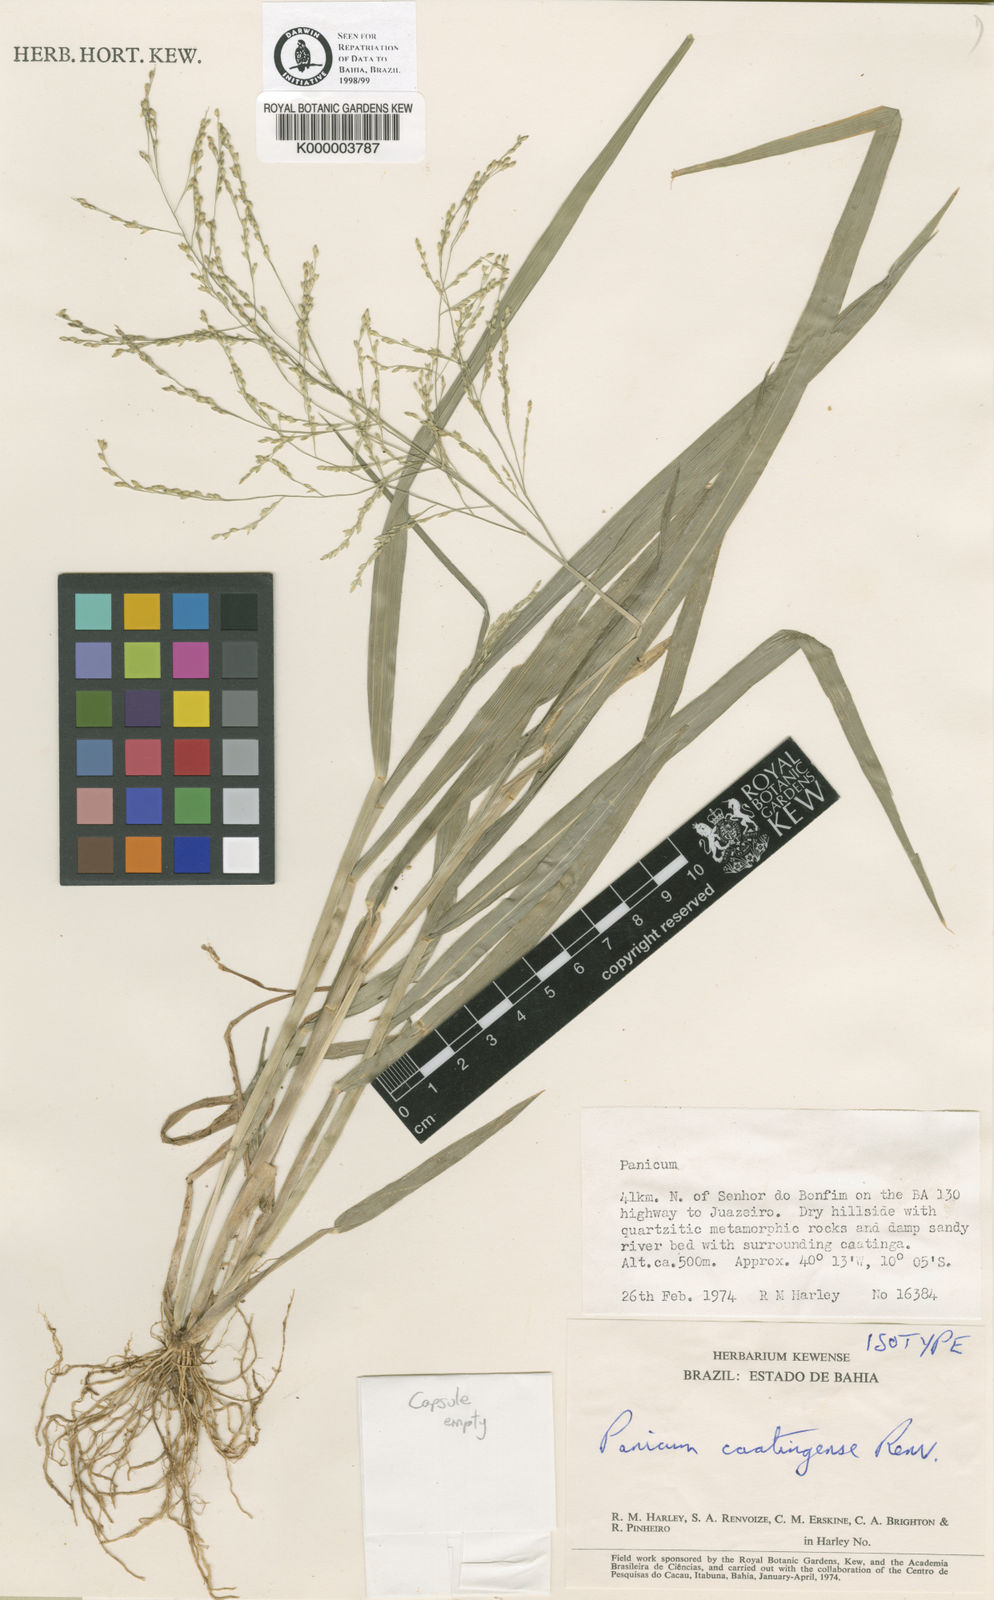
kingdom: Plantae
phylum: Tracheophyta
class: Liliopsida
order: Poales
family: Poaceae
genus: Panicum
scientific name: Panicum stramineum
